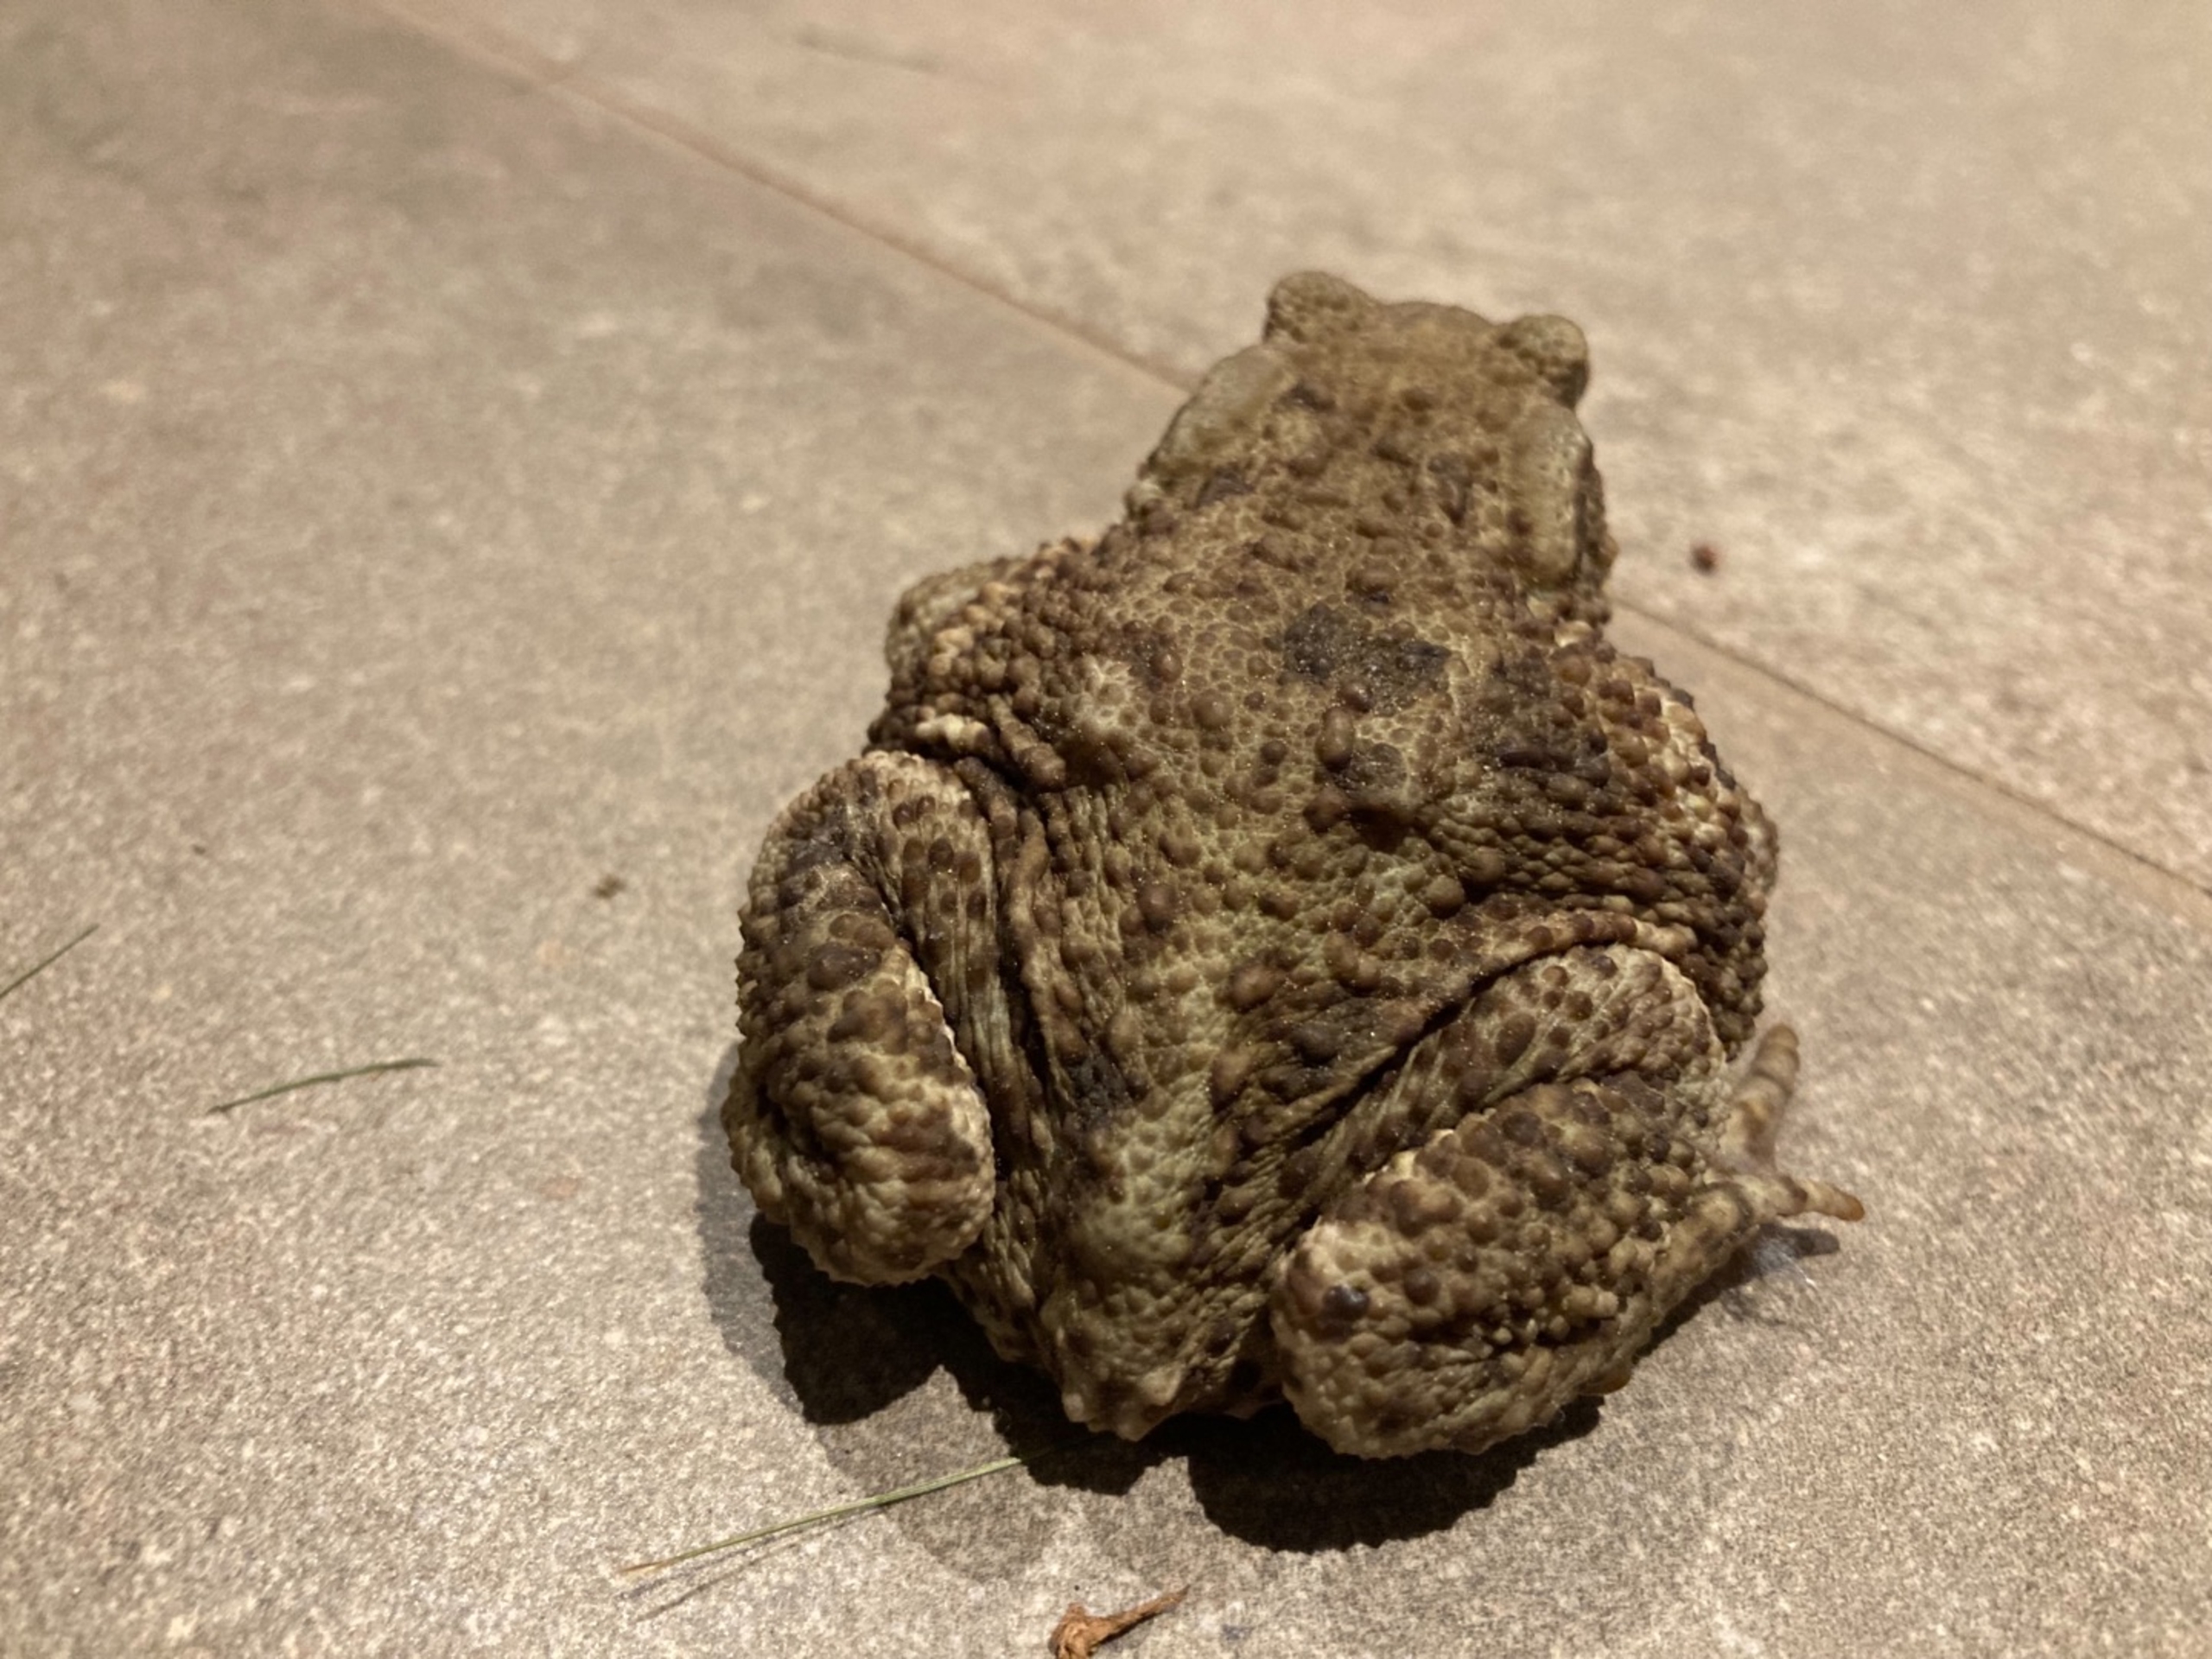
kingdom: Animalia
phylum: Chordata
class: Amphibia
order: Anura
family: Bufonidae
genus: Bufo
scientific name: Bufo bufo
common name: Skrubtudse
